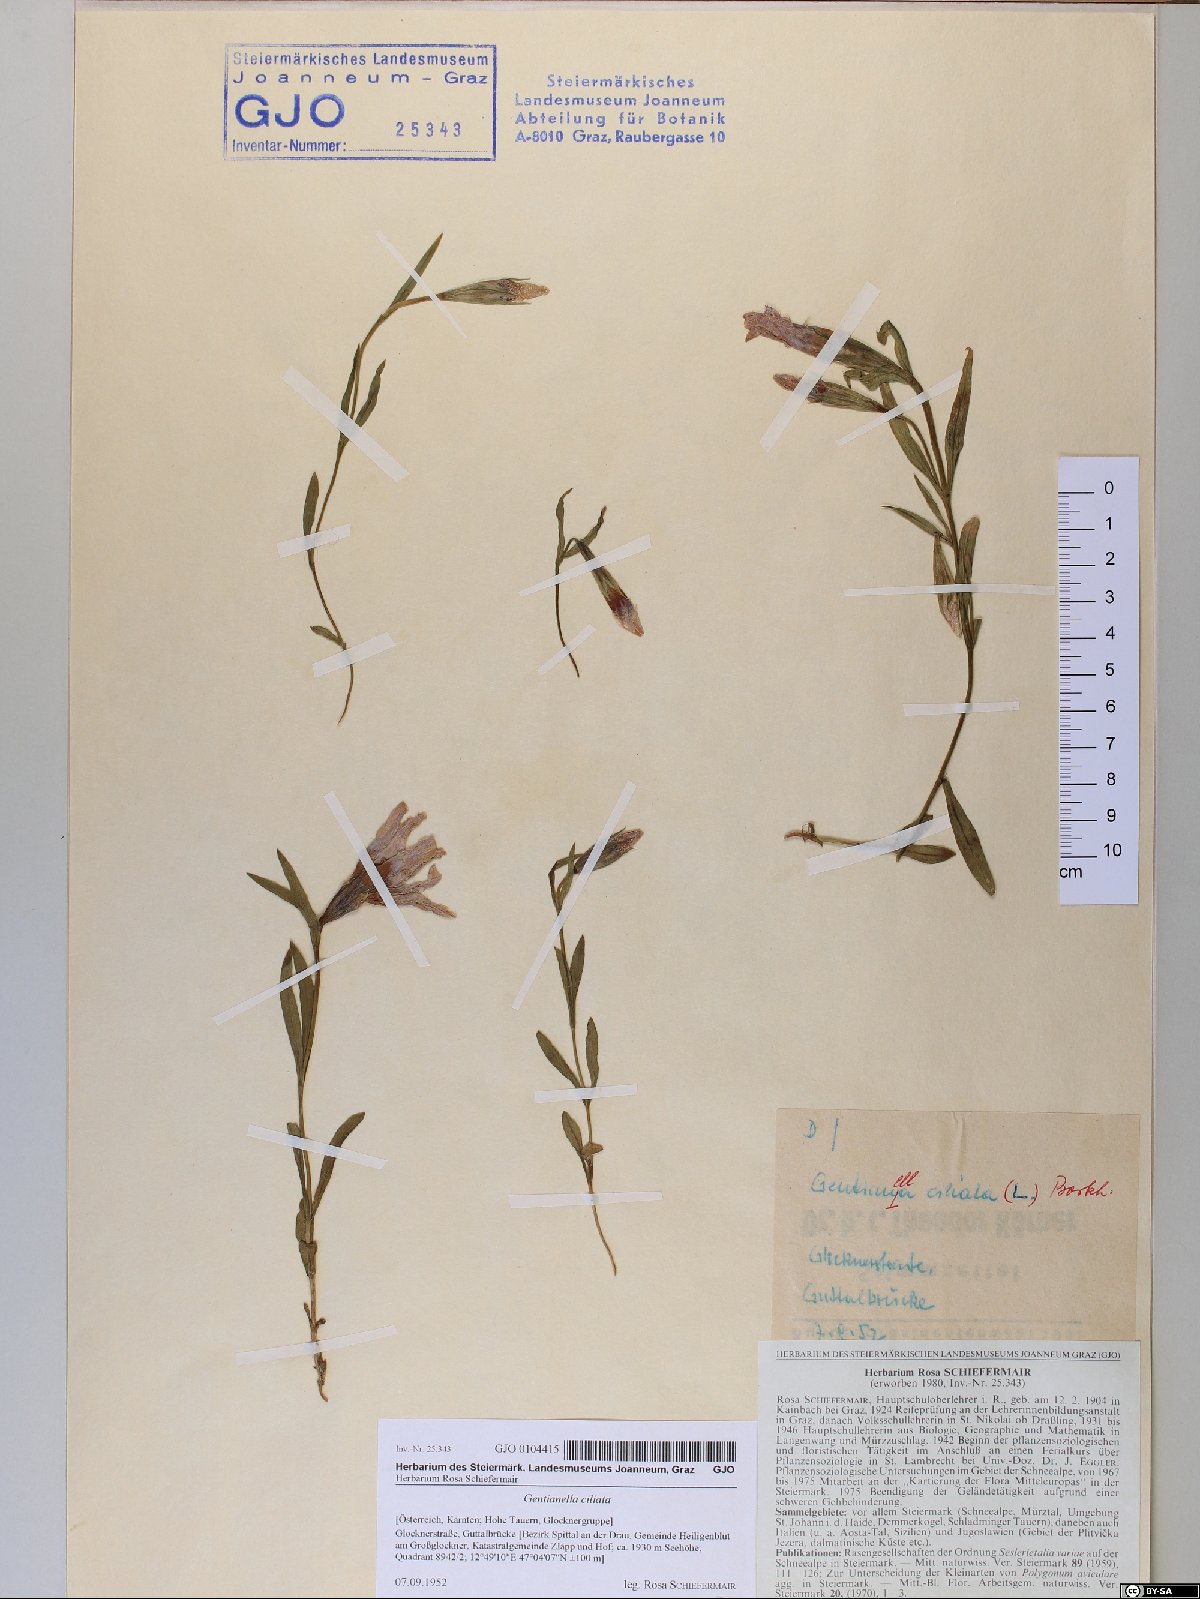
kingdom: Plantae
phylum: Tracheophyta
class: Magnoliopsida
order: Gentianales
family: Gentianaceae
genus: Gentianopsis
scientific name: Gentianopsis ciliata
